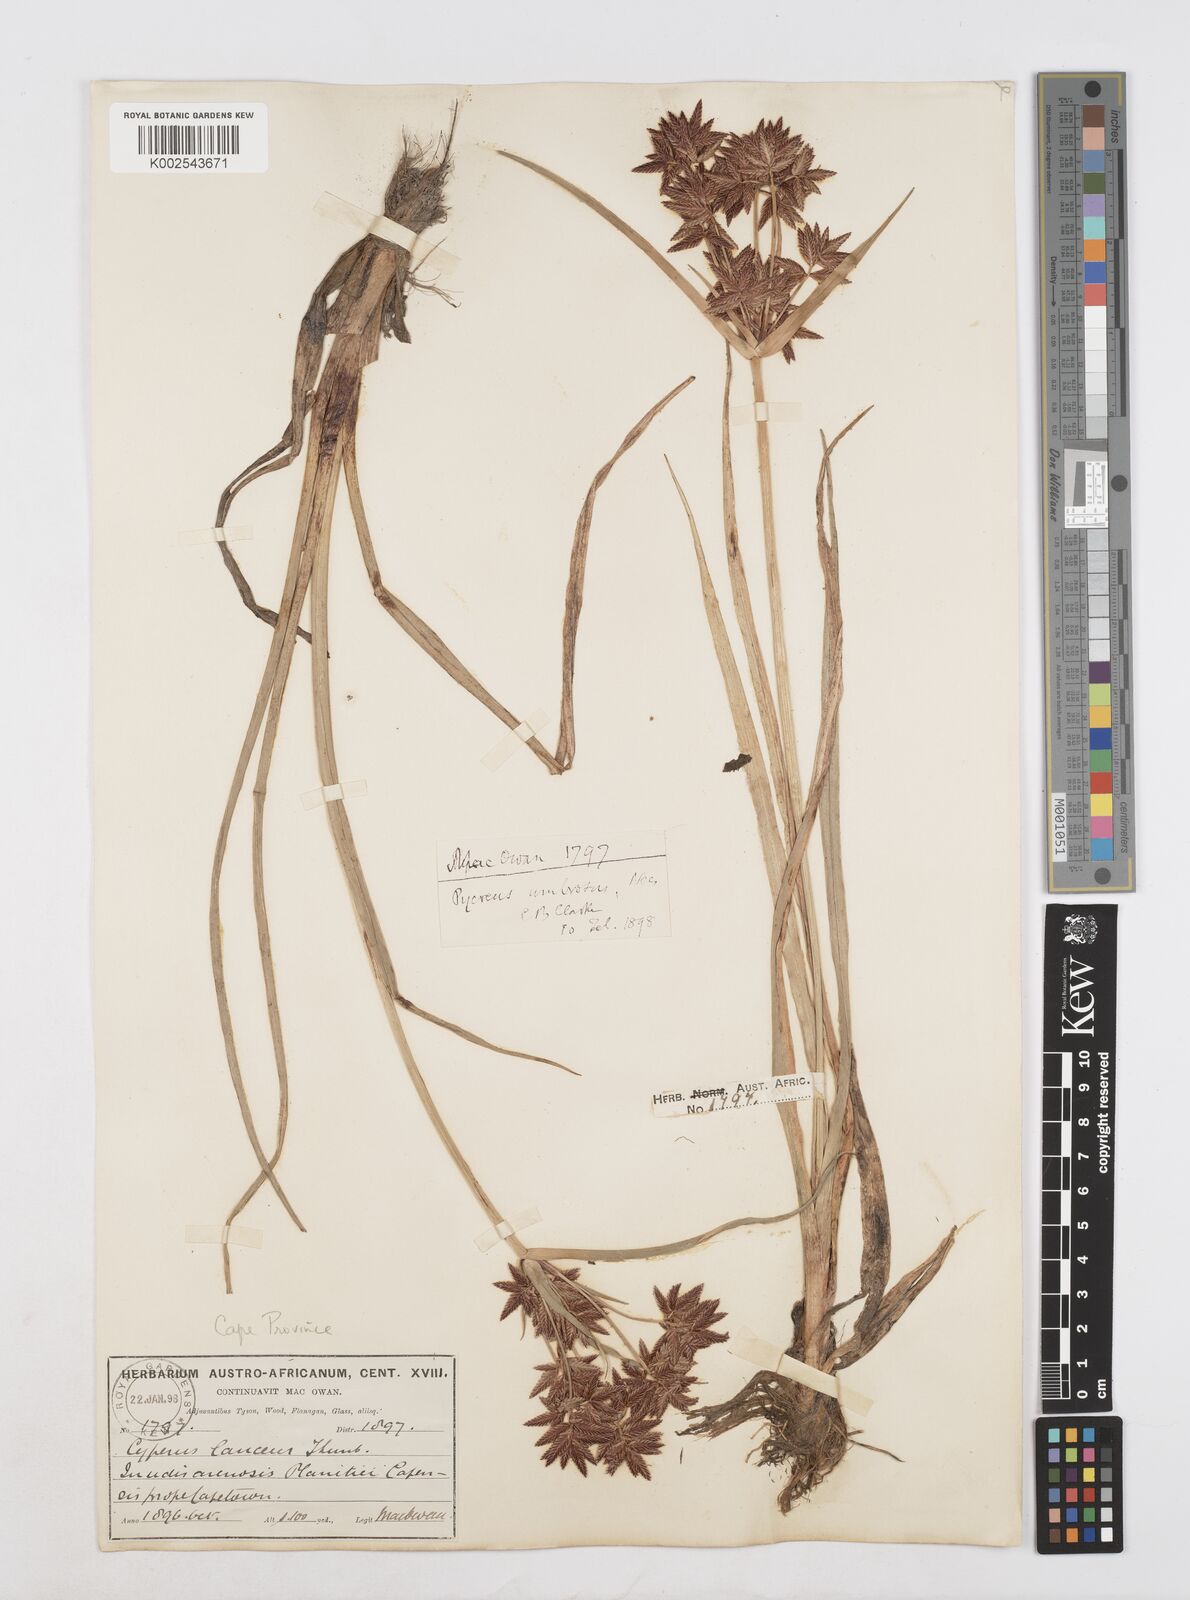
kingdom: Plantae
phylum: Tracheophyta
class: Liliopsida
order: Poales
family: Cyperaceae
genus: Cyperus
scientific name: Cyperus nitidus
